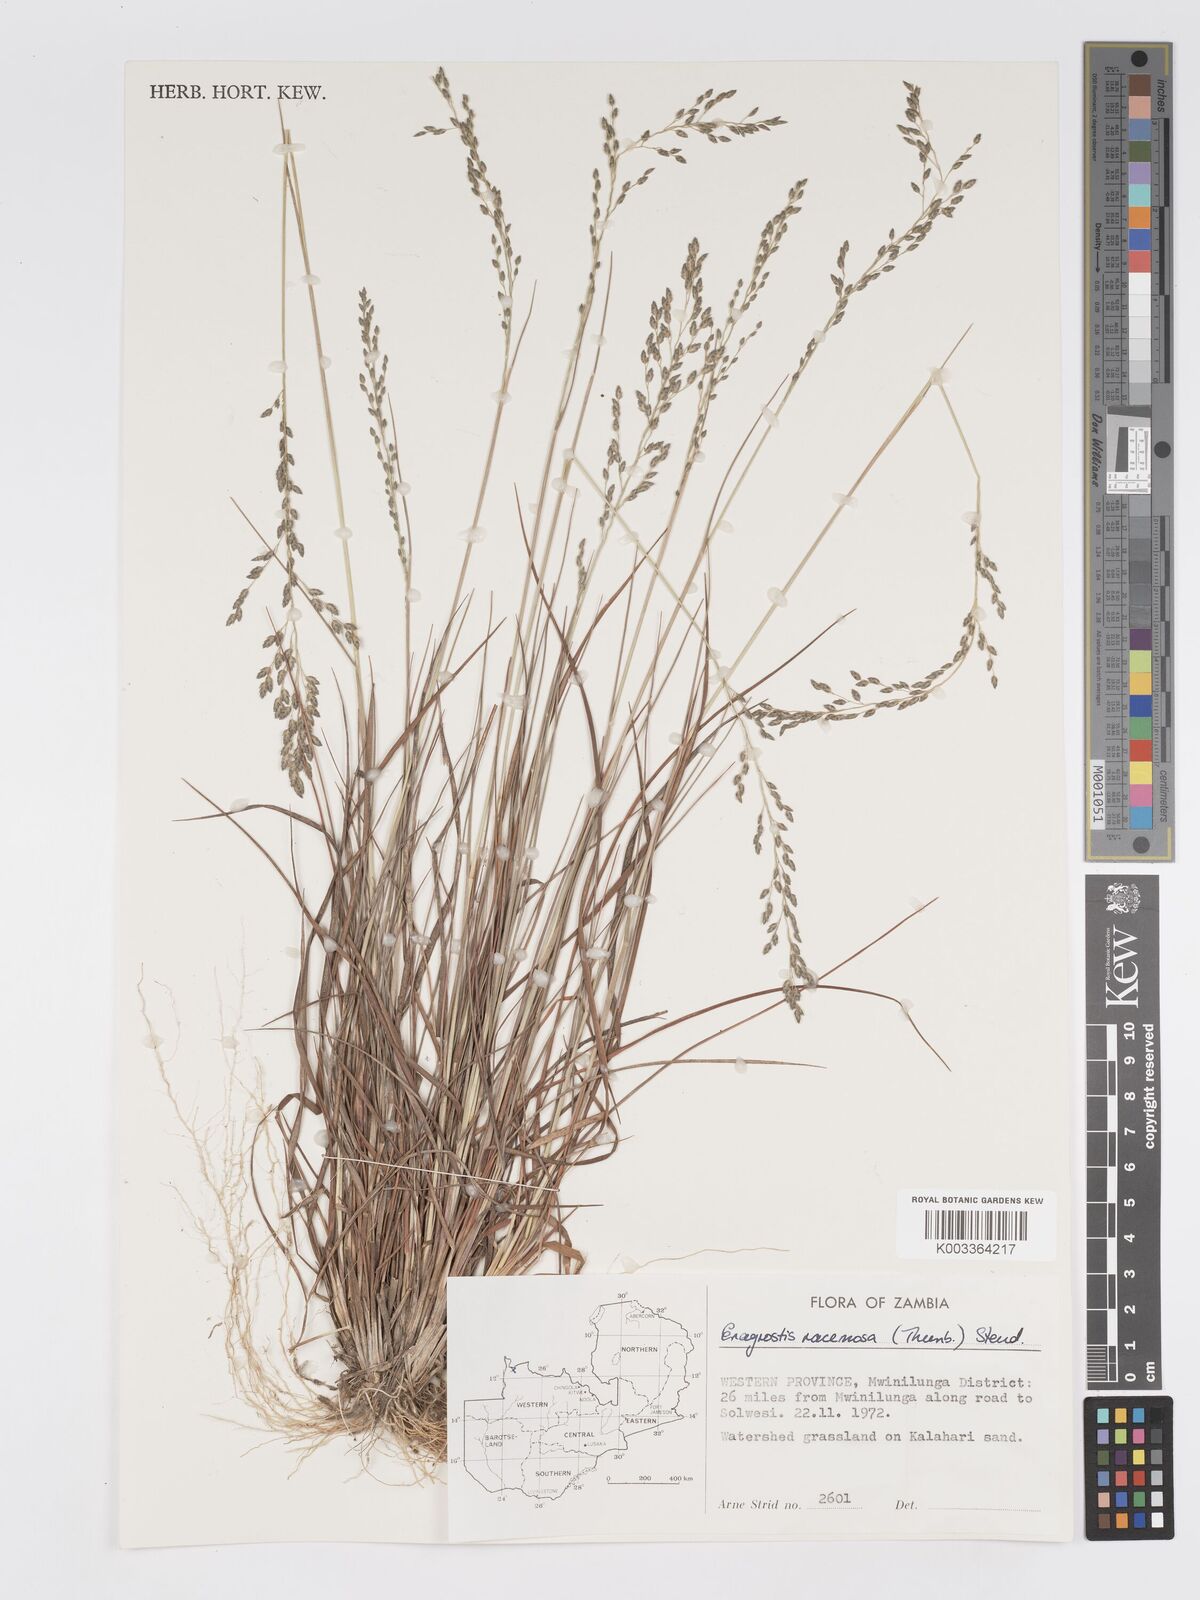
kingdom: Plantae
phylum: Tracheophyta
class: Liliopsida
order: Poales
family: Poaceae
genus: Eragrostis
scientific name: Eragrostis racemosa
